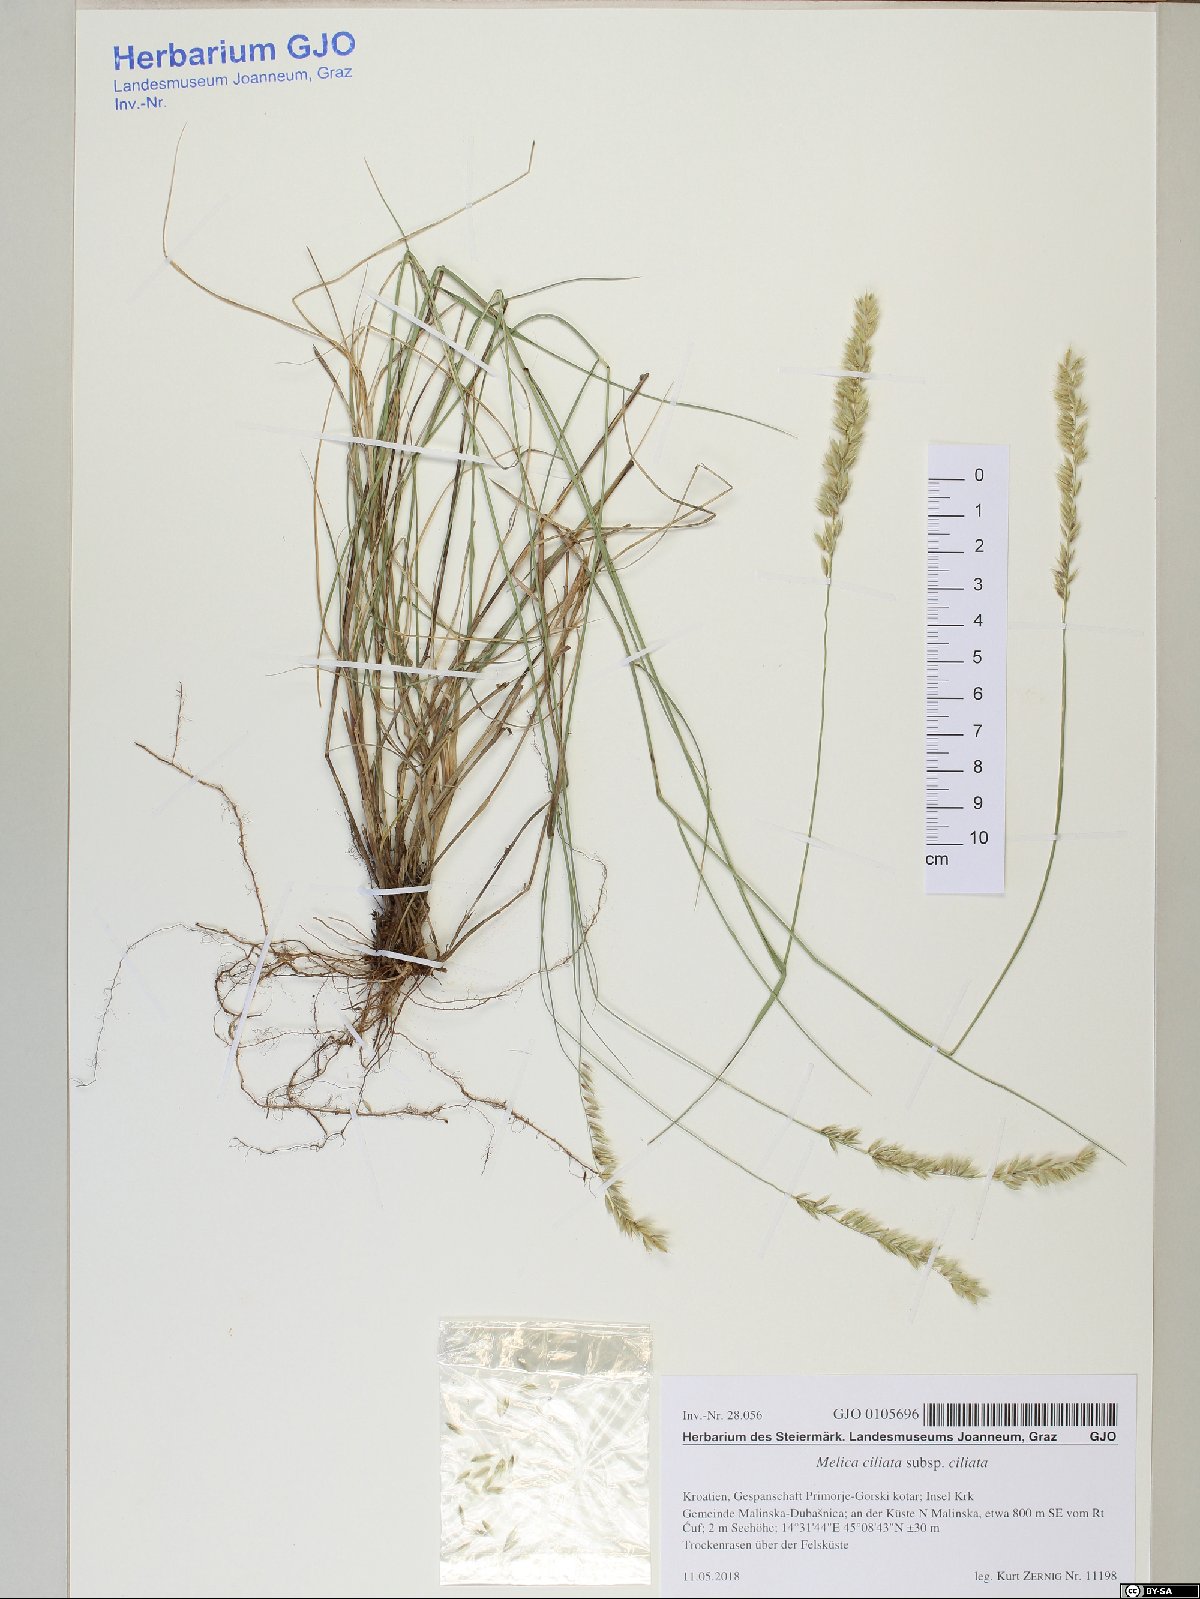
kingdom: Plantae
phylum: Tracheophyta
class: Liliopsida
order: Poales
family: Poaceae
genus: Melica
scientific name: Melica ciliata
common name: Hairy melicgrass
